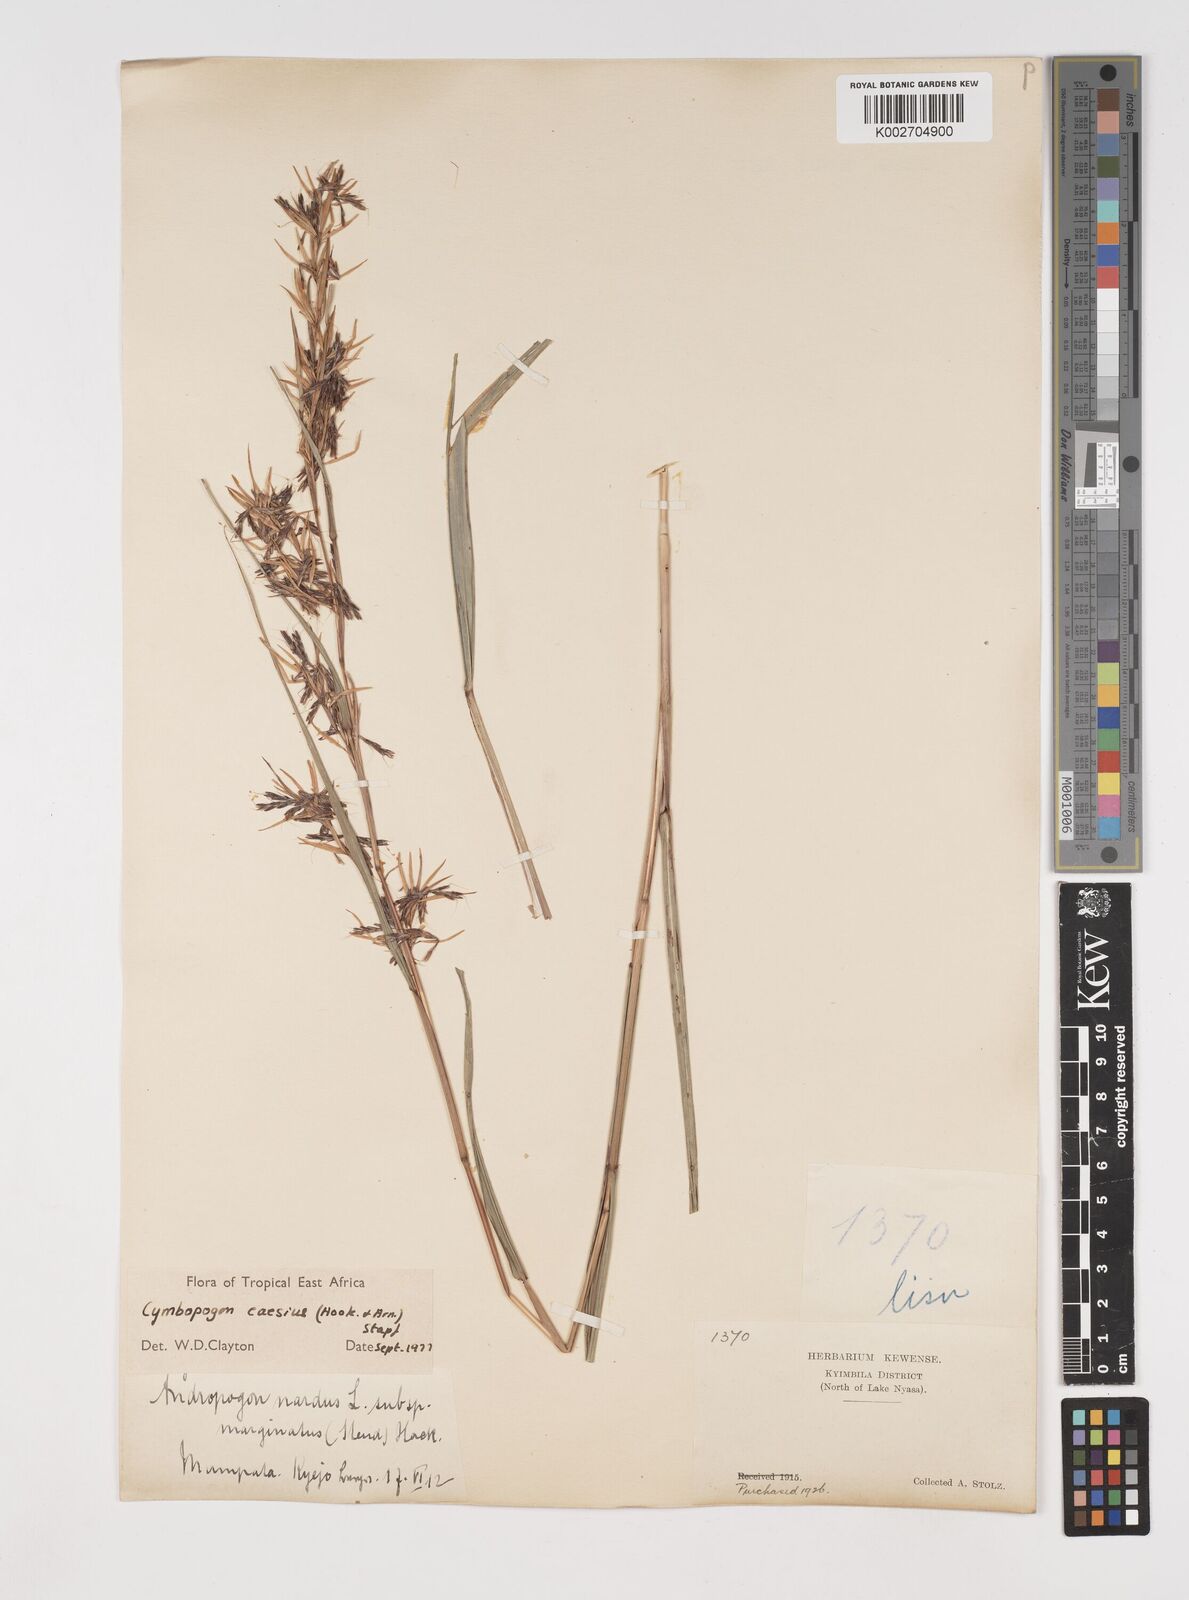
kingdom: Plantae
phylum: Tracheophyta
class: Liliopsida
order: Poales
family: Poaceae
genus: Cymbopogon
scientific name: Cymbopogon caesius
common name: Kachi grass
